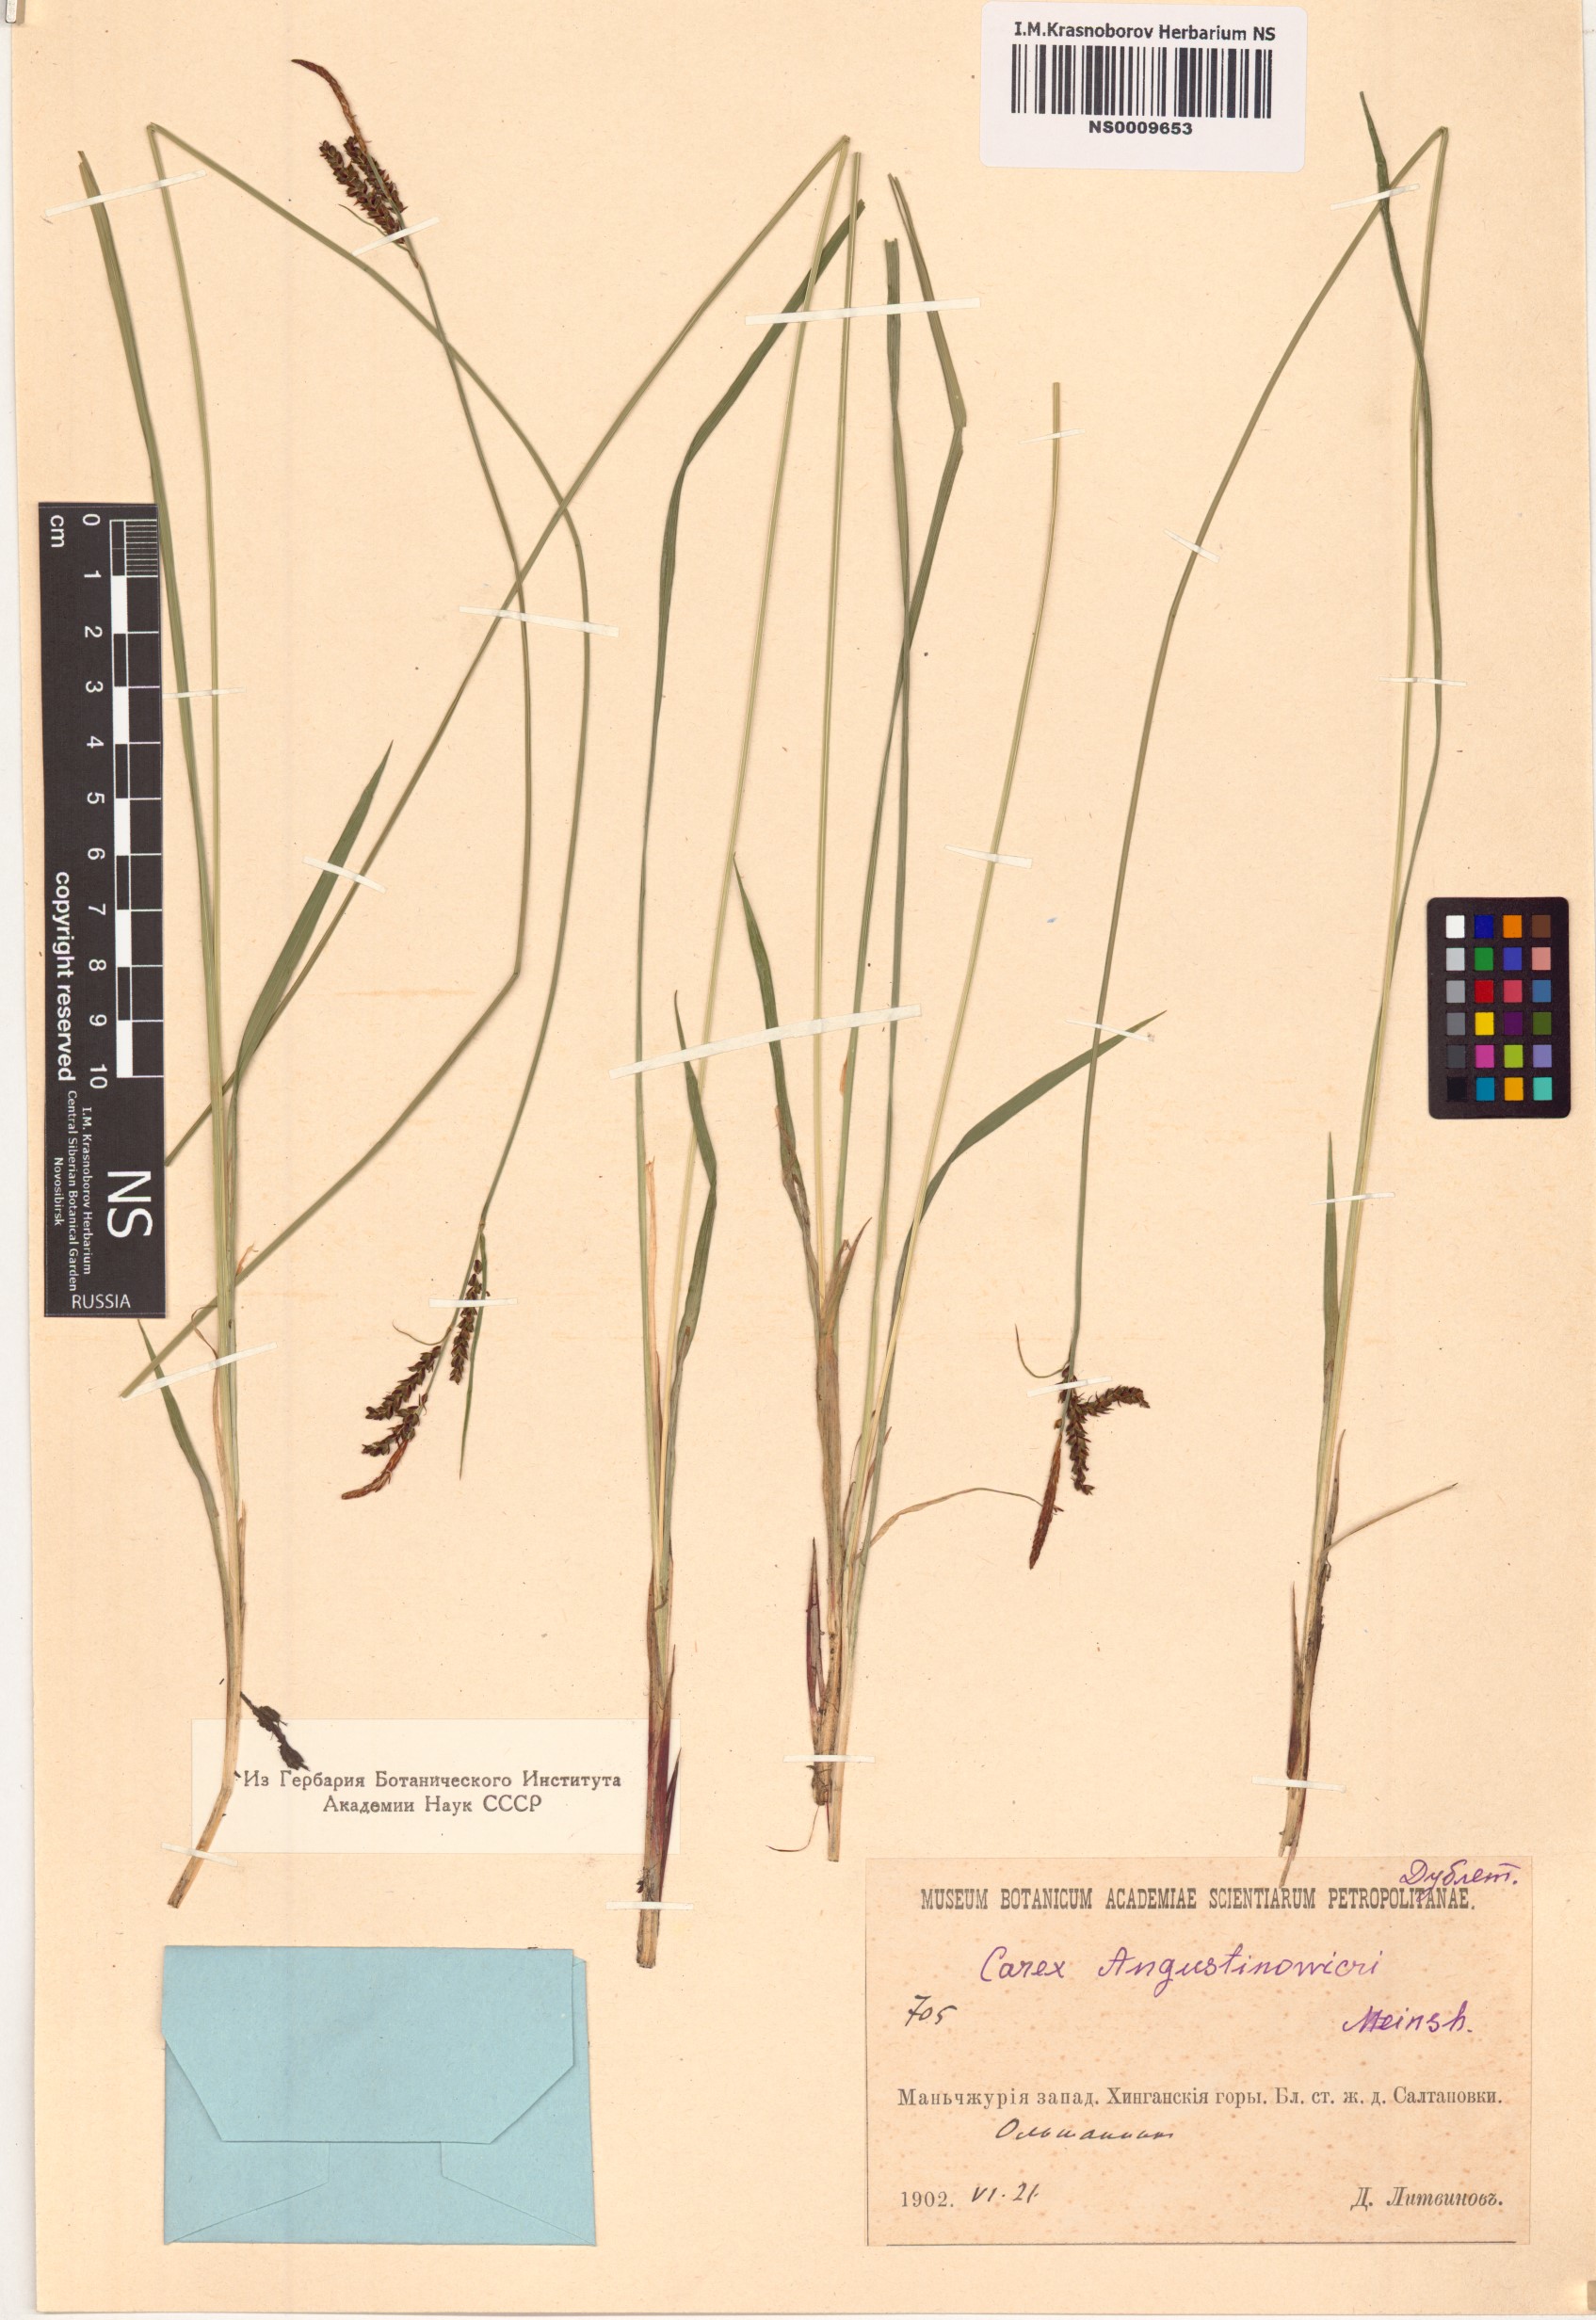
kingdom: Plantae
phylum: Tracheophyta
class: Liliopsida
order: Poales
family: Cyperaceae
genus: Carex
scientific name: Carex augustinowiczii
